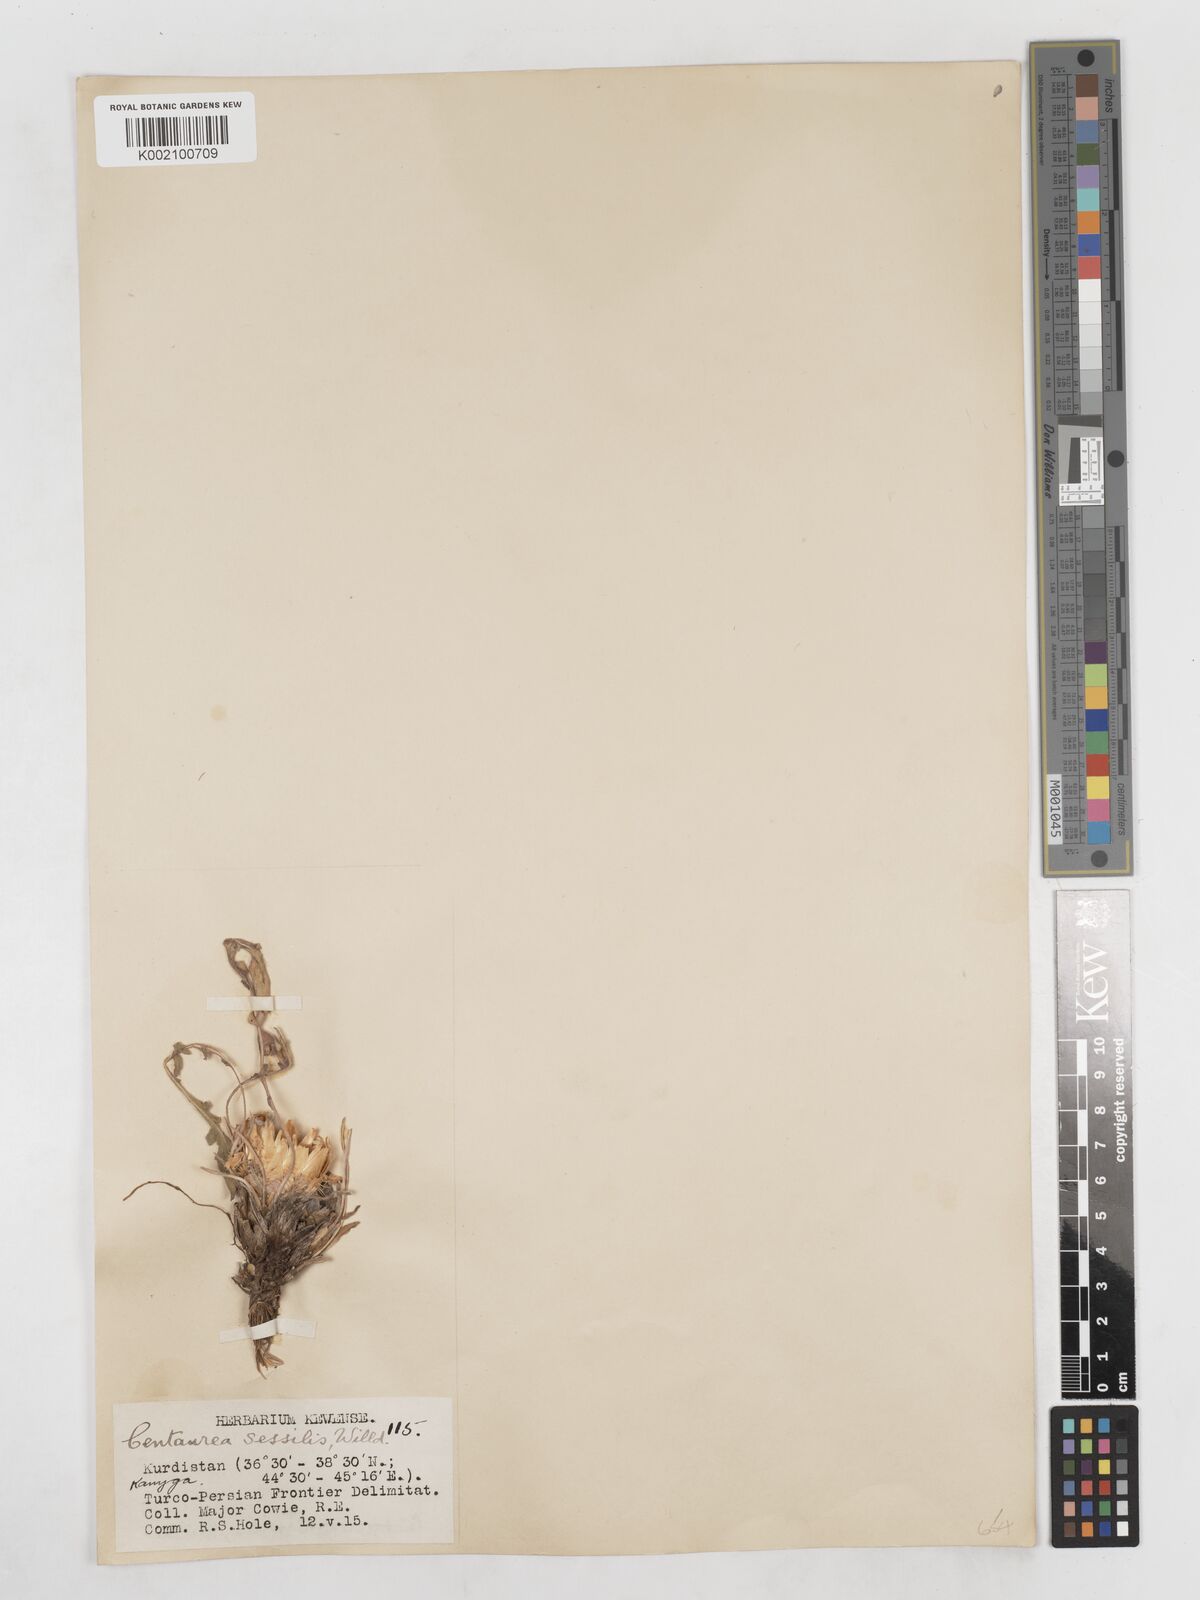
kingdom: Plantae
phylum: Tracheophyta
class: Magnoliopsida
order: Asterales
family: Asteraceae
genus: Centaurea
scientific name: Centaurea rhizantha
